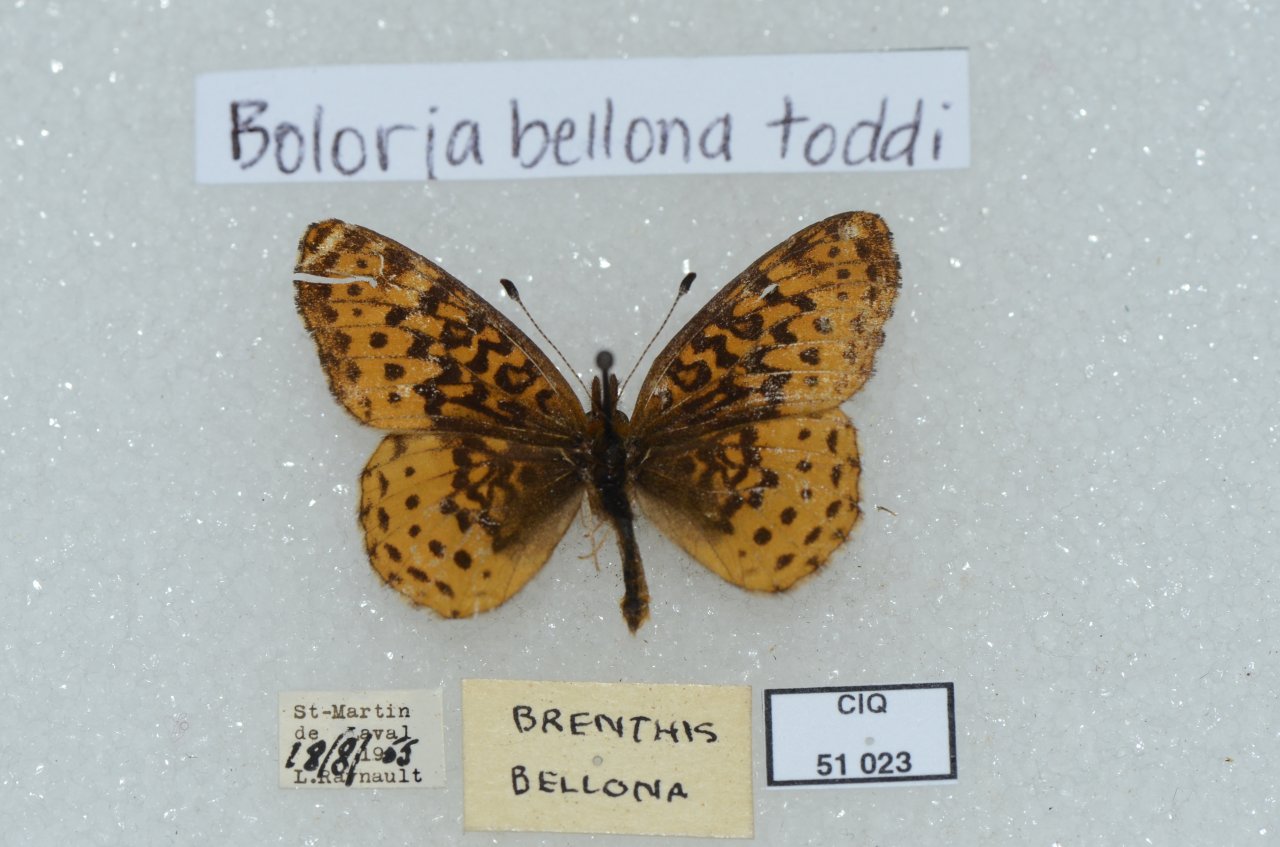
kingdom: Animalia
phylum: Arthropoda
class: Insecta
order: Lepidoptera
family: Nymphalidae
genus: Clossiana
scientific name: Clossiana toddi
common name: Meadow Fritillary
